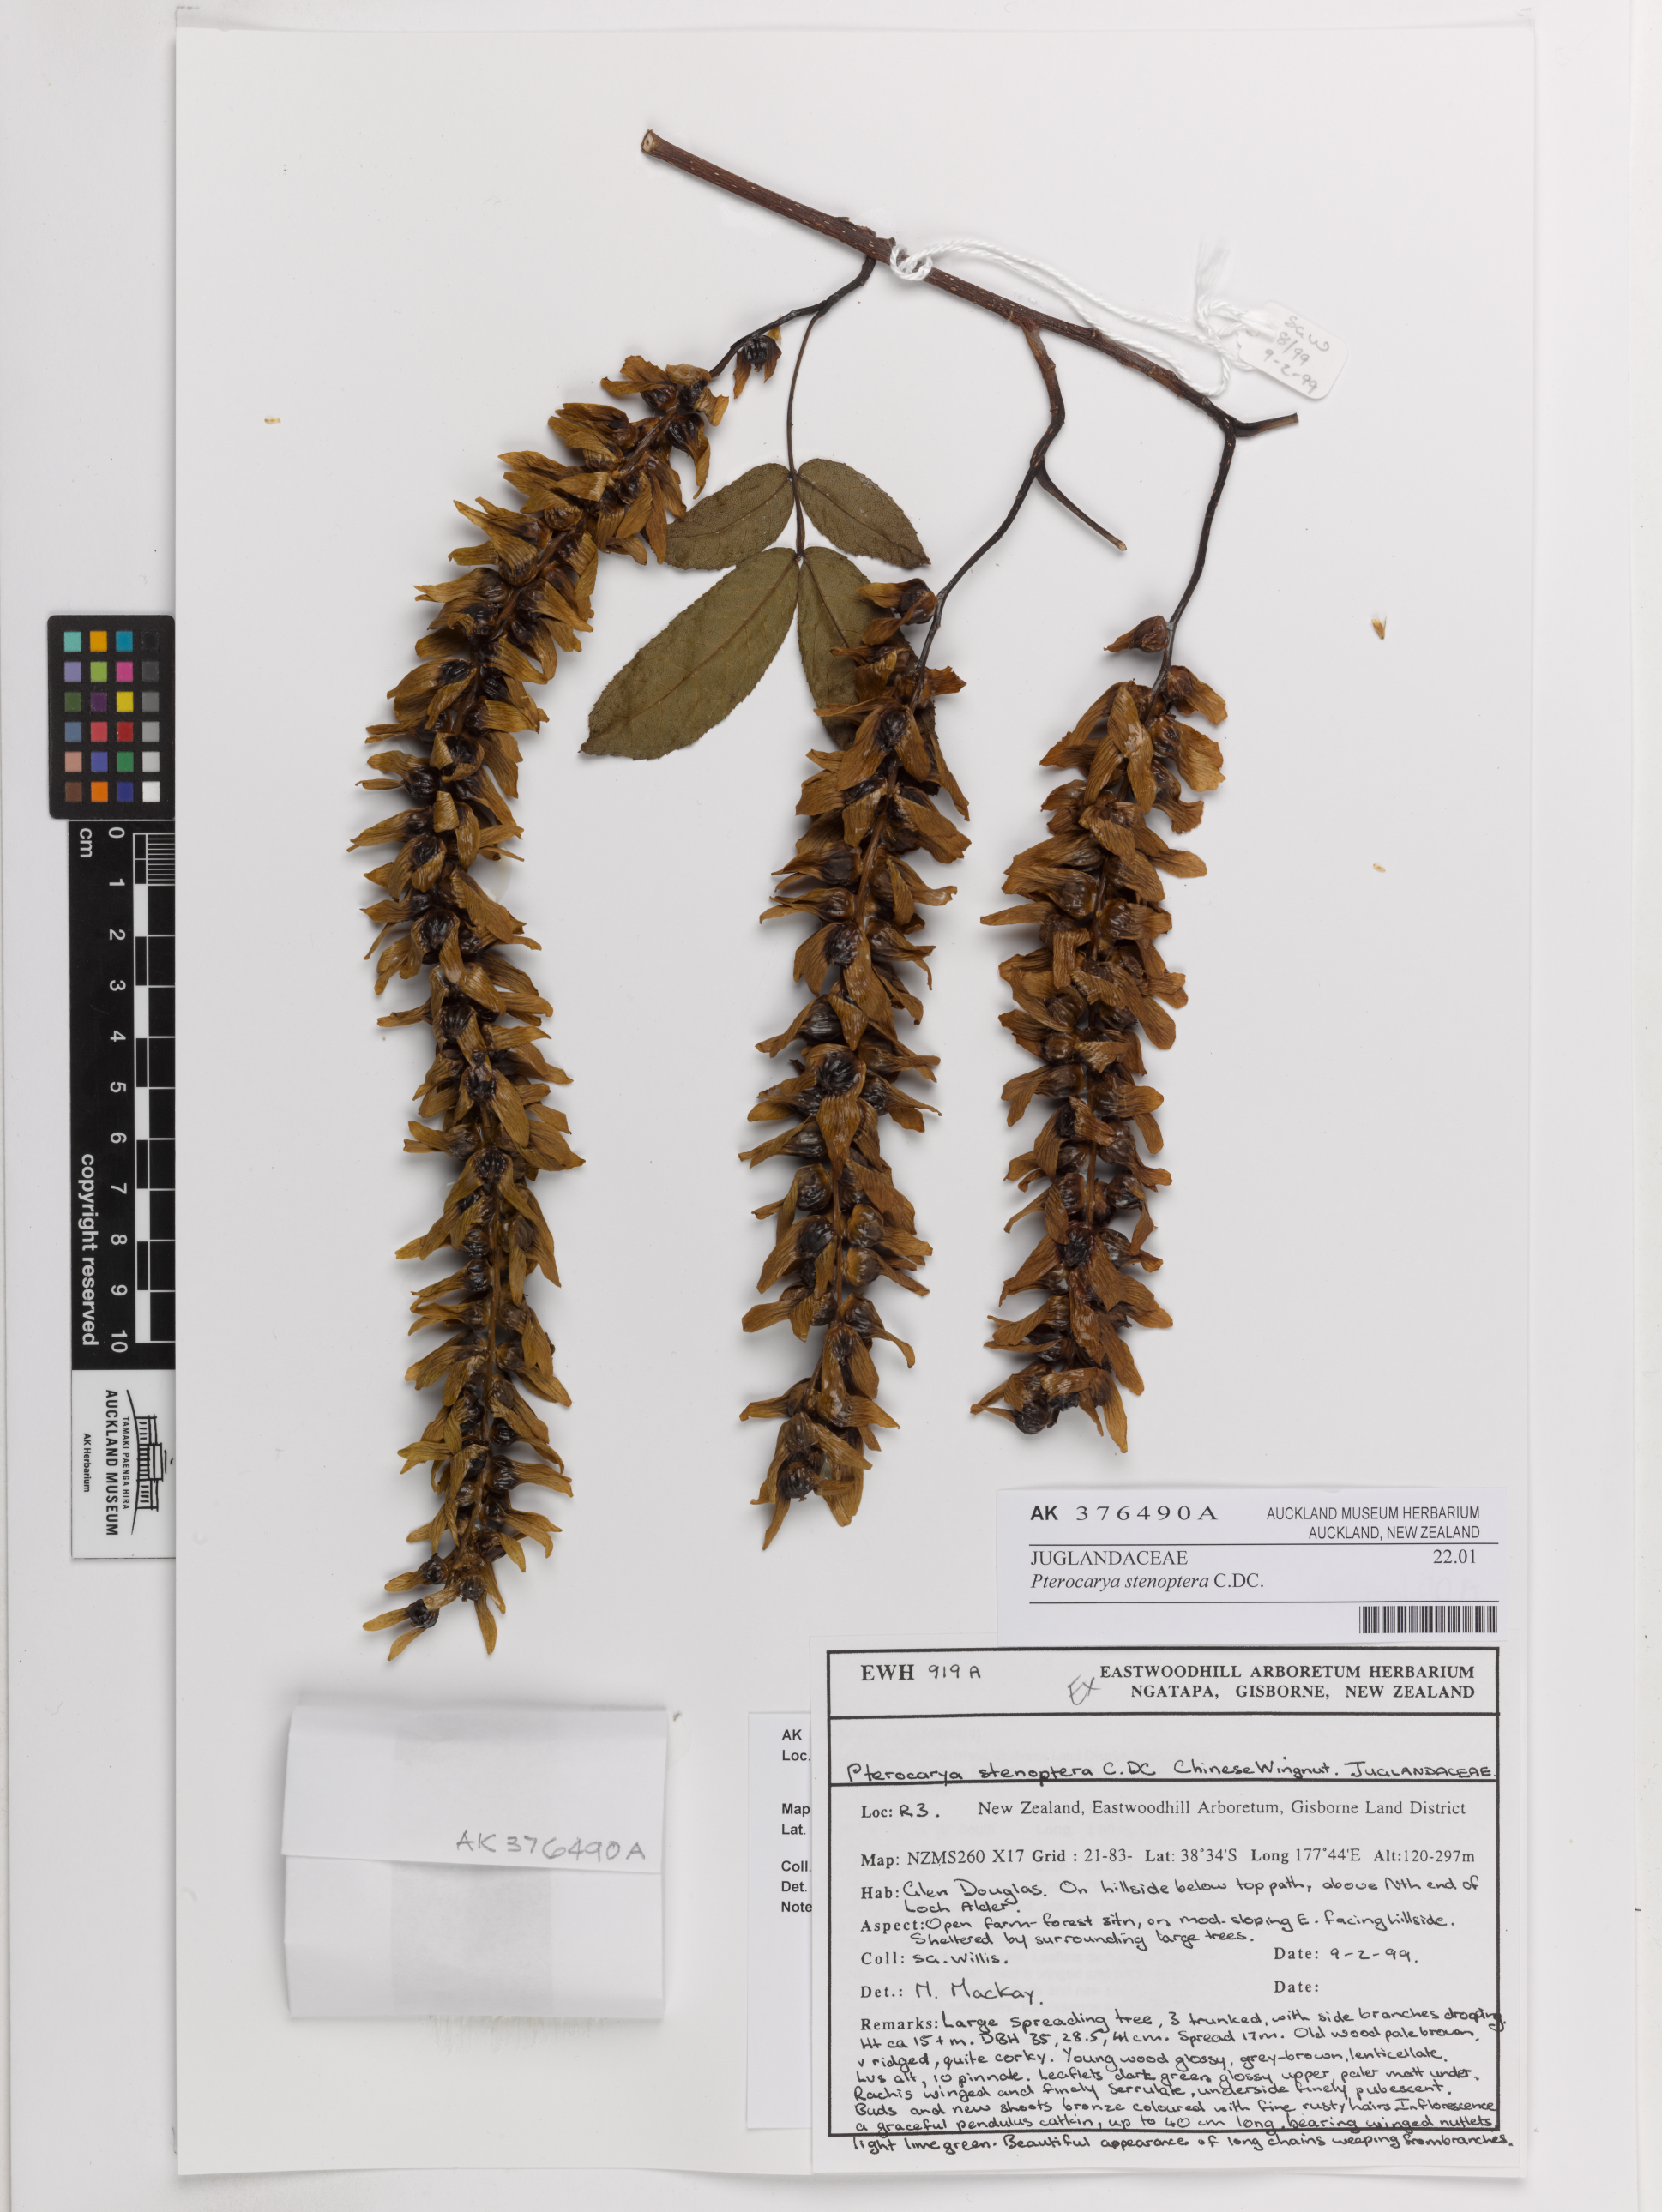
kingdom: Plantae
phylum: Tracheophyta
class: Magnoliopsida
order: Fagales
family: Juglandaceae
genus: Pterocarya
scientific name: Pterocarya stenoptera
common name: Chinese wingnut
